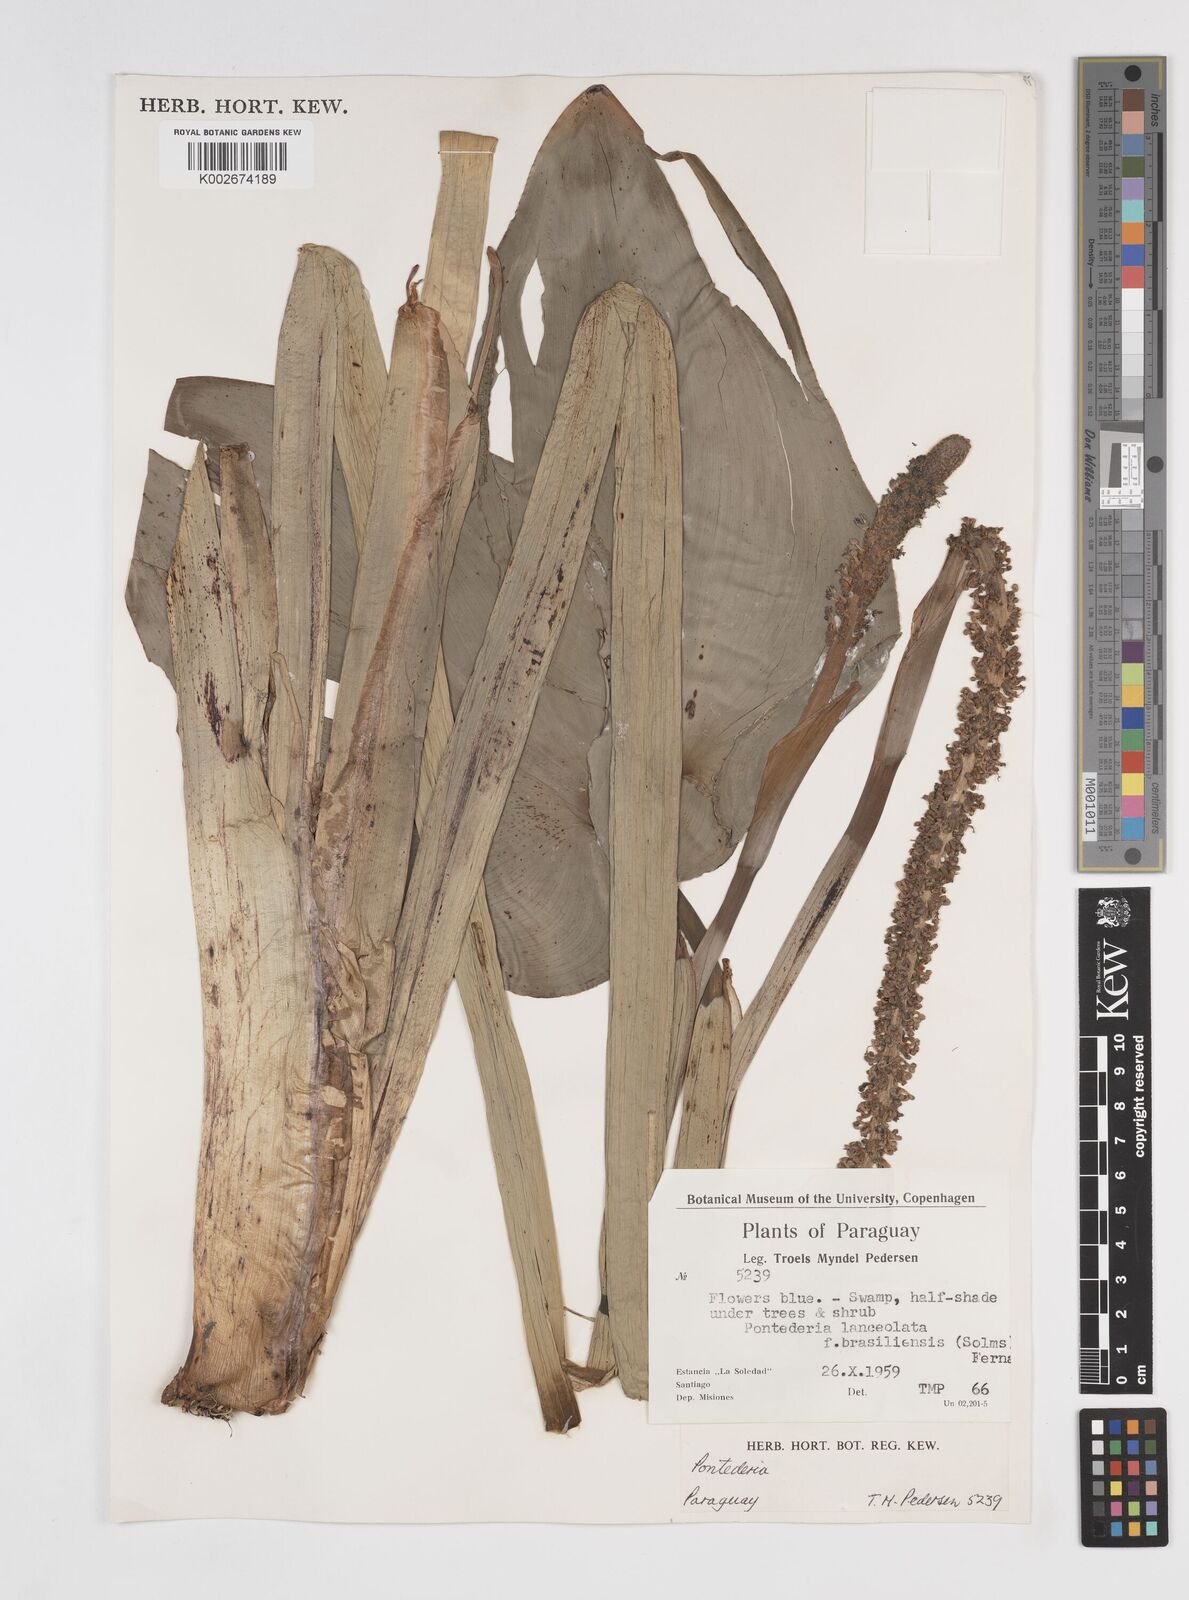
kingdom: Plantae
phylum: Tracheophyta
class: Liliopsida
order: Commelinales
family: Pontederiaceae
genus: Pontederia
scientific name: Pontederia
